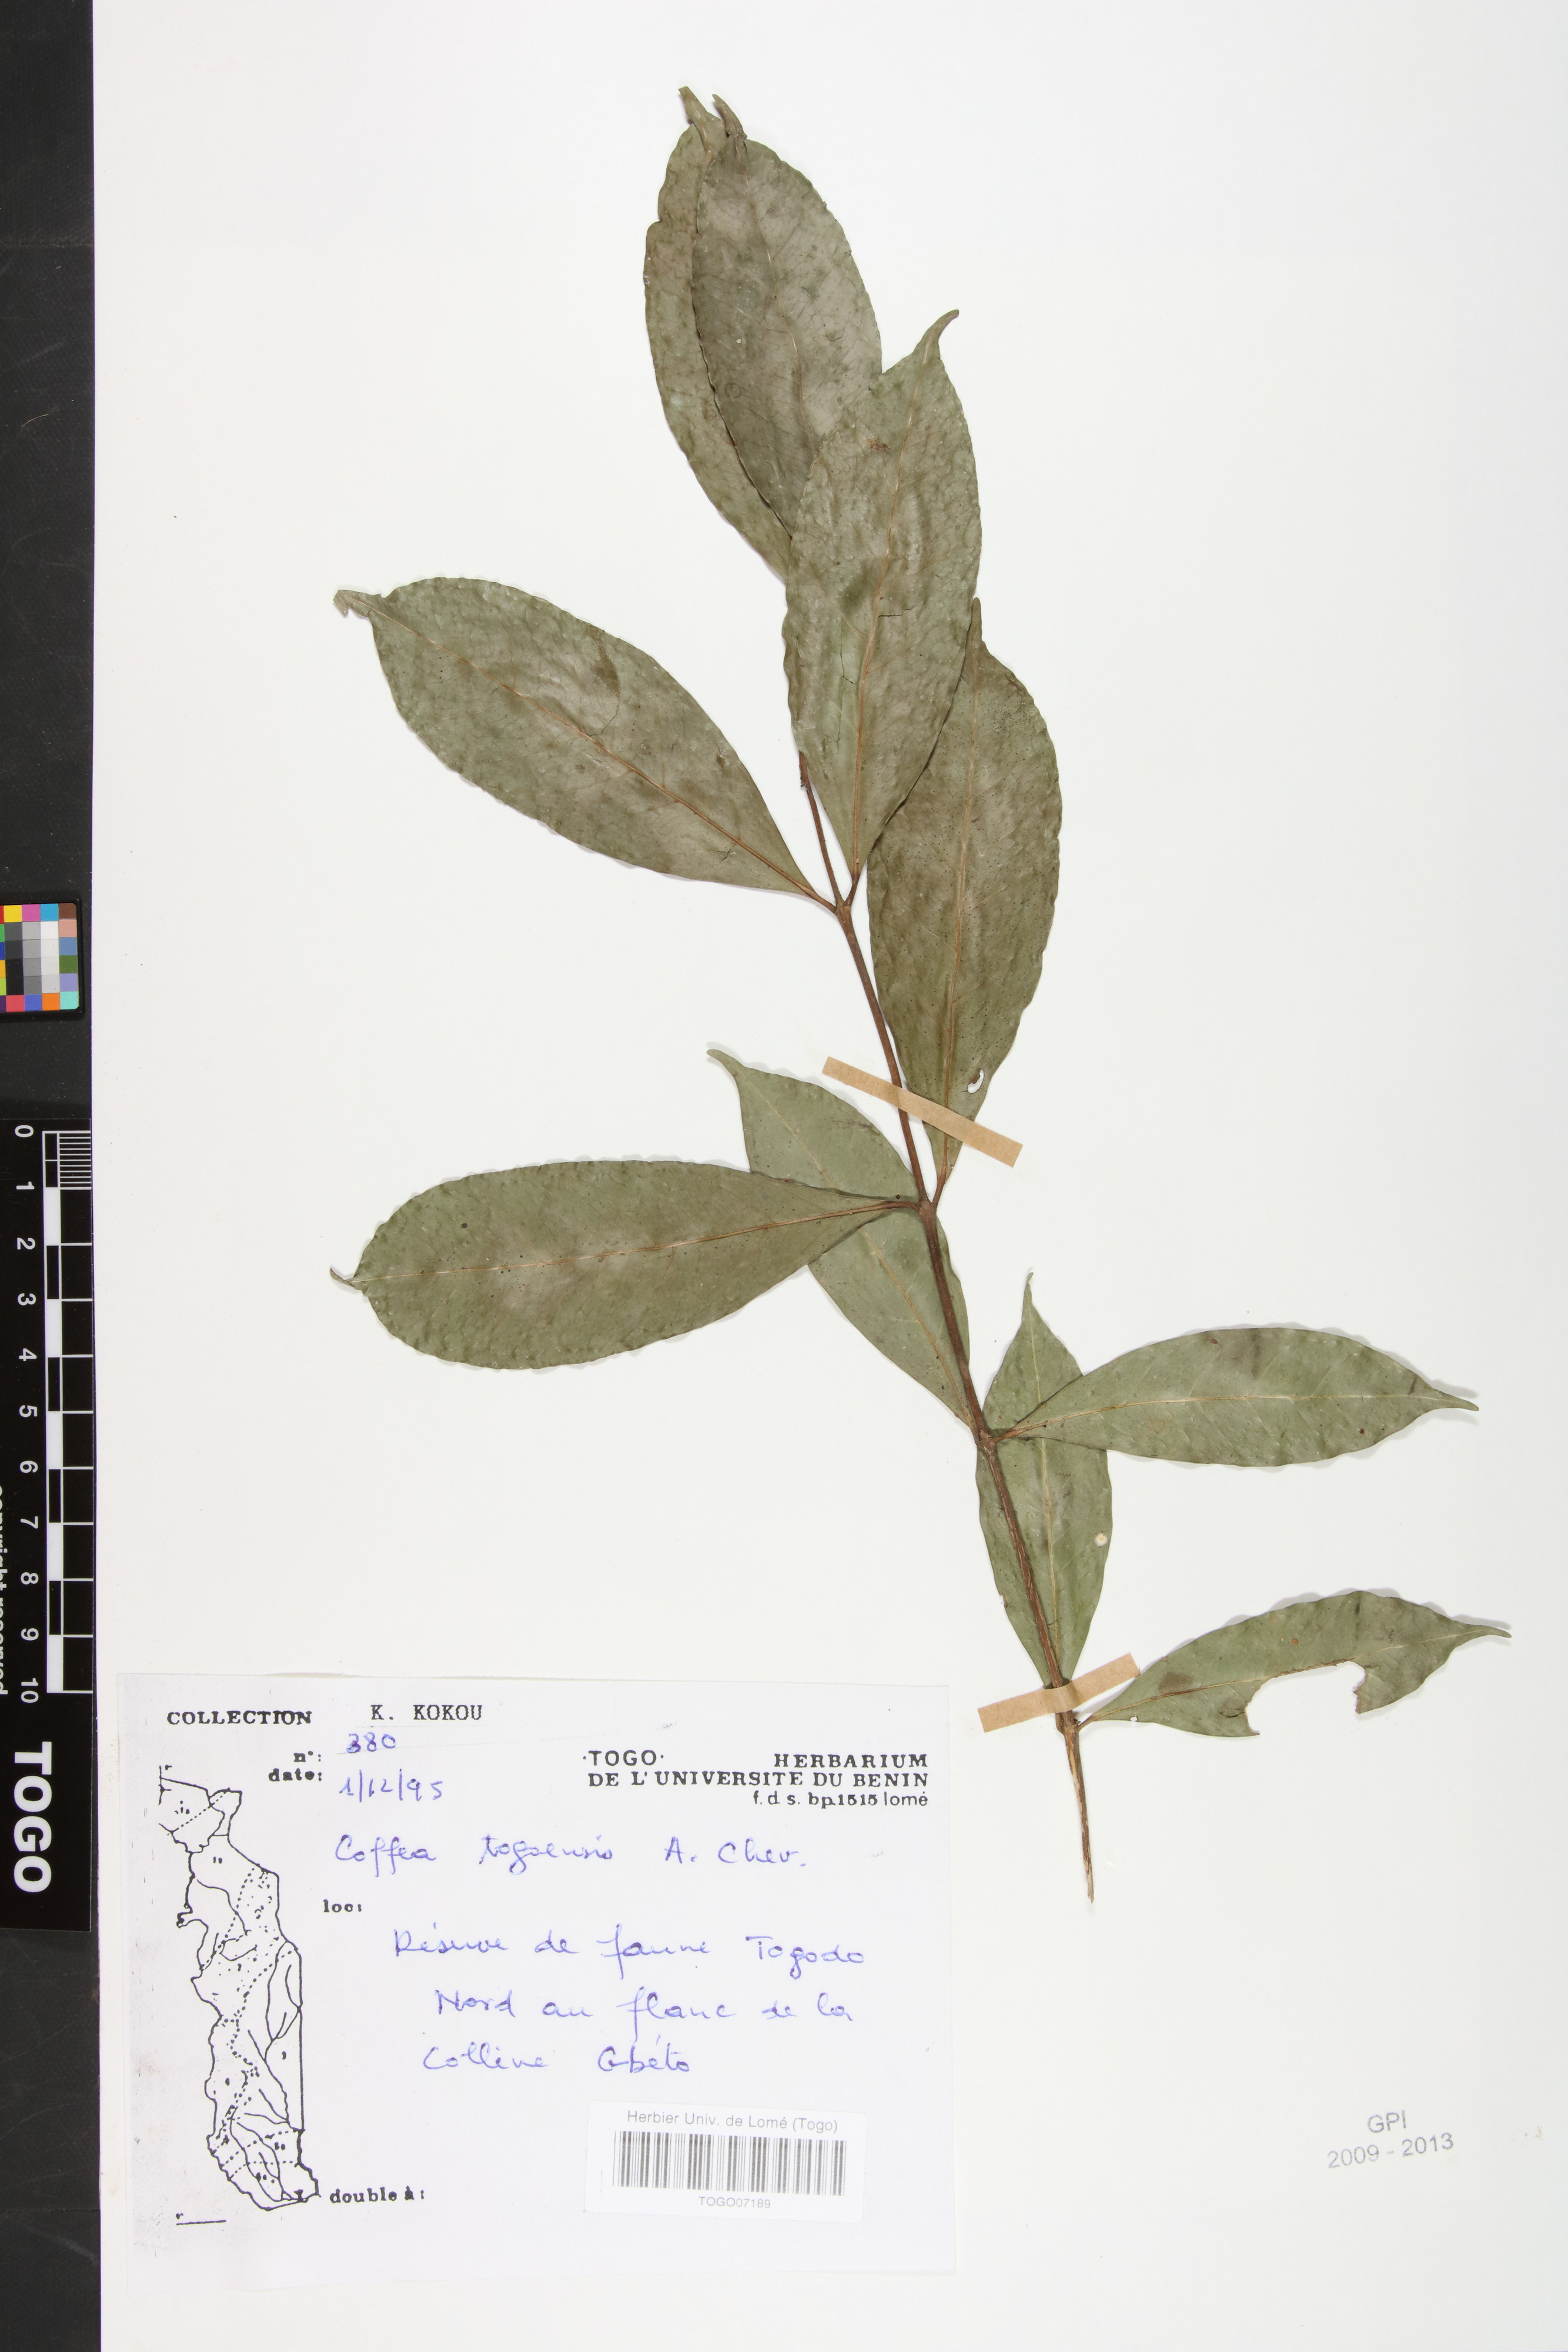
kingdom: Plantae
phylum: Tracheophyta
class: Magnoliopsida
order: Gentianales
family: Rubiaceae
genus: Coffea
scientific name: Coffea togoensis
